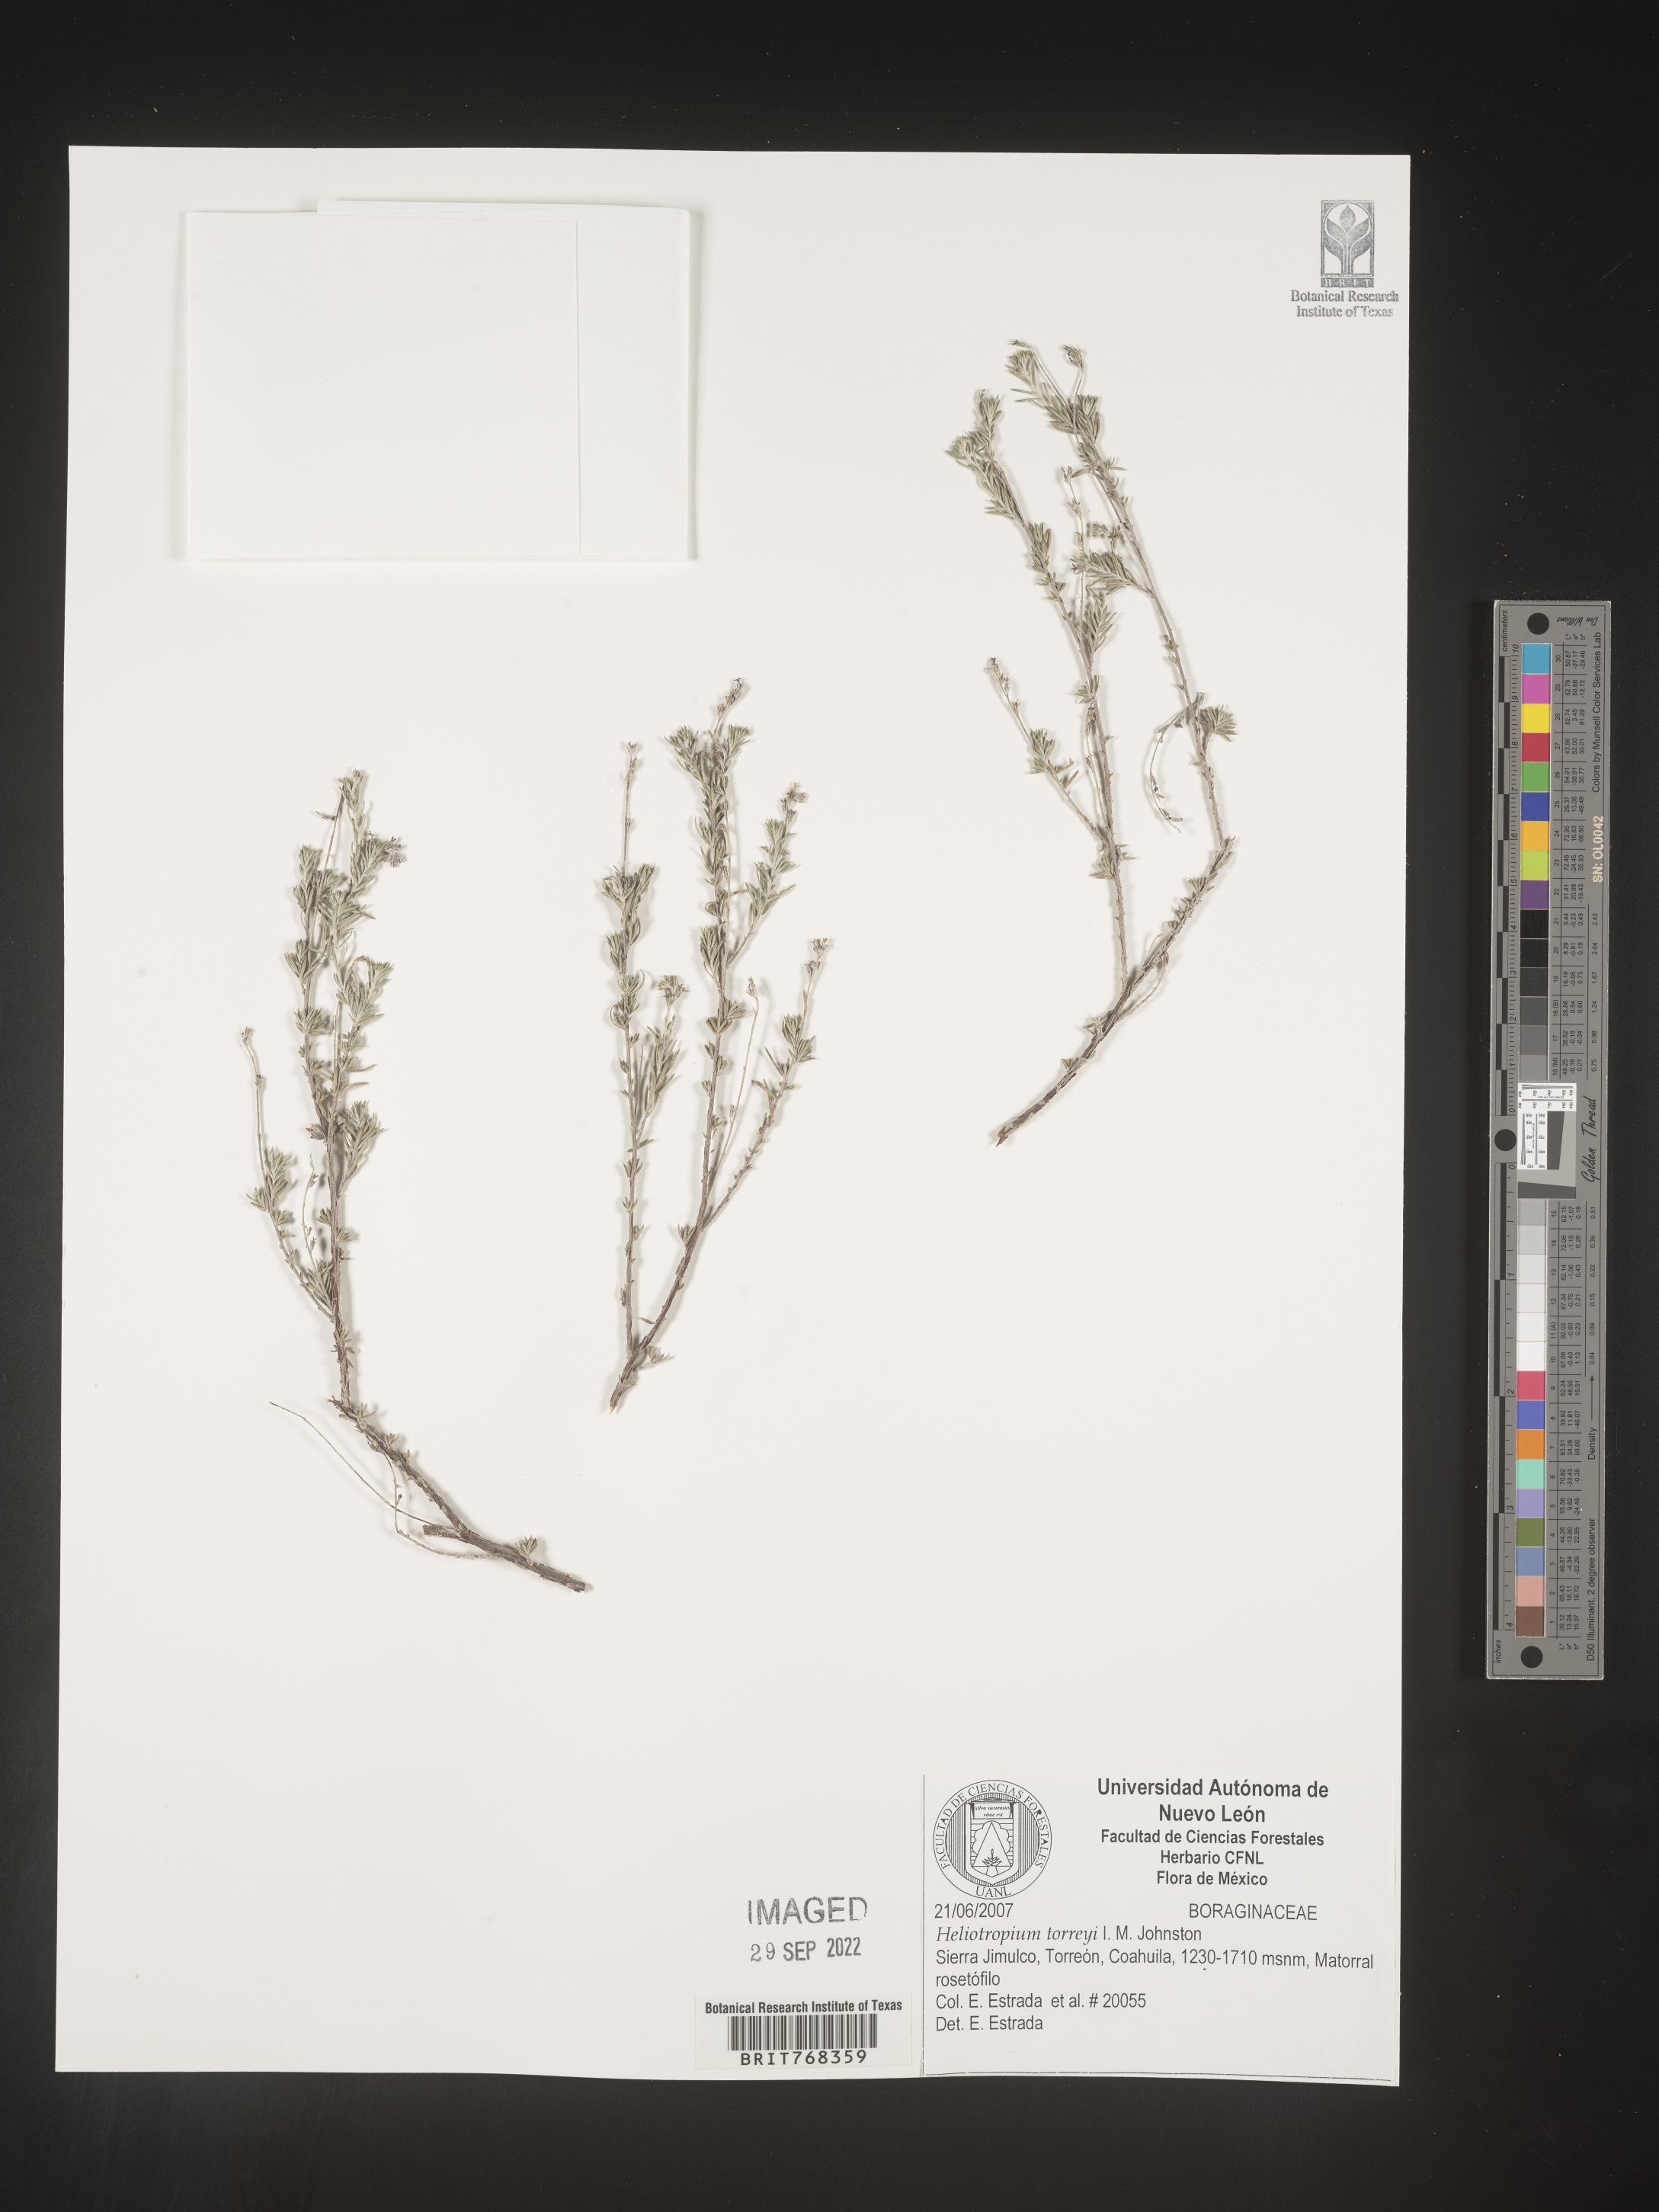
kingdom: Plantae
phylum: Tracheophyta
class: Magnoliopsida
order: Boraginales
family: Heliotropiaceae
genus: Heliotropium
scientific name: Heliotropium
